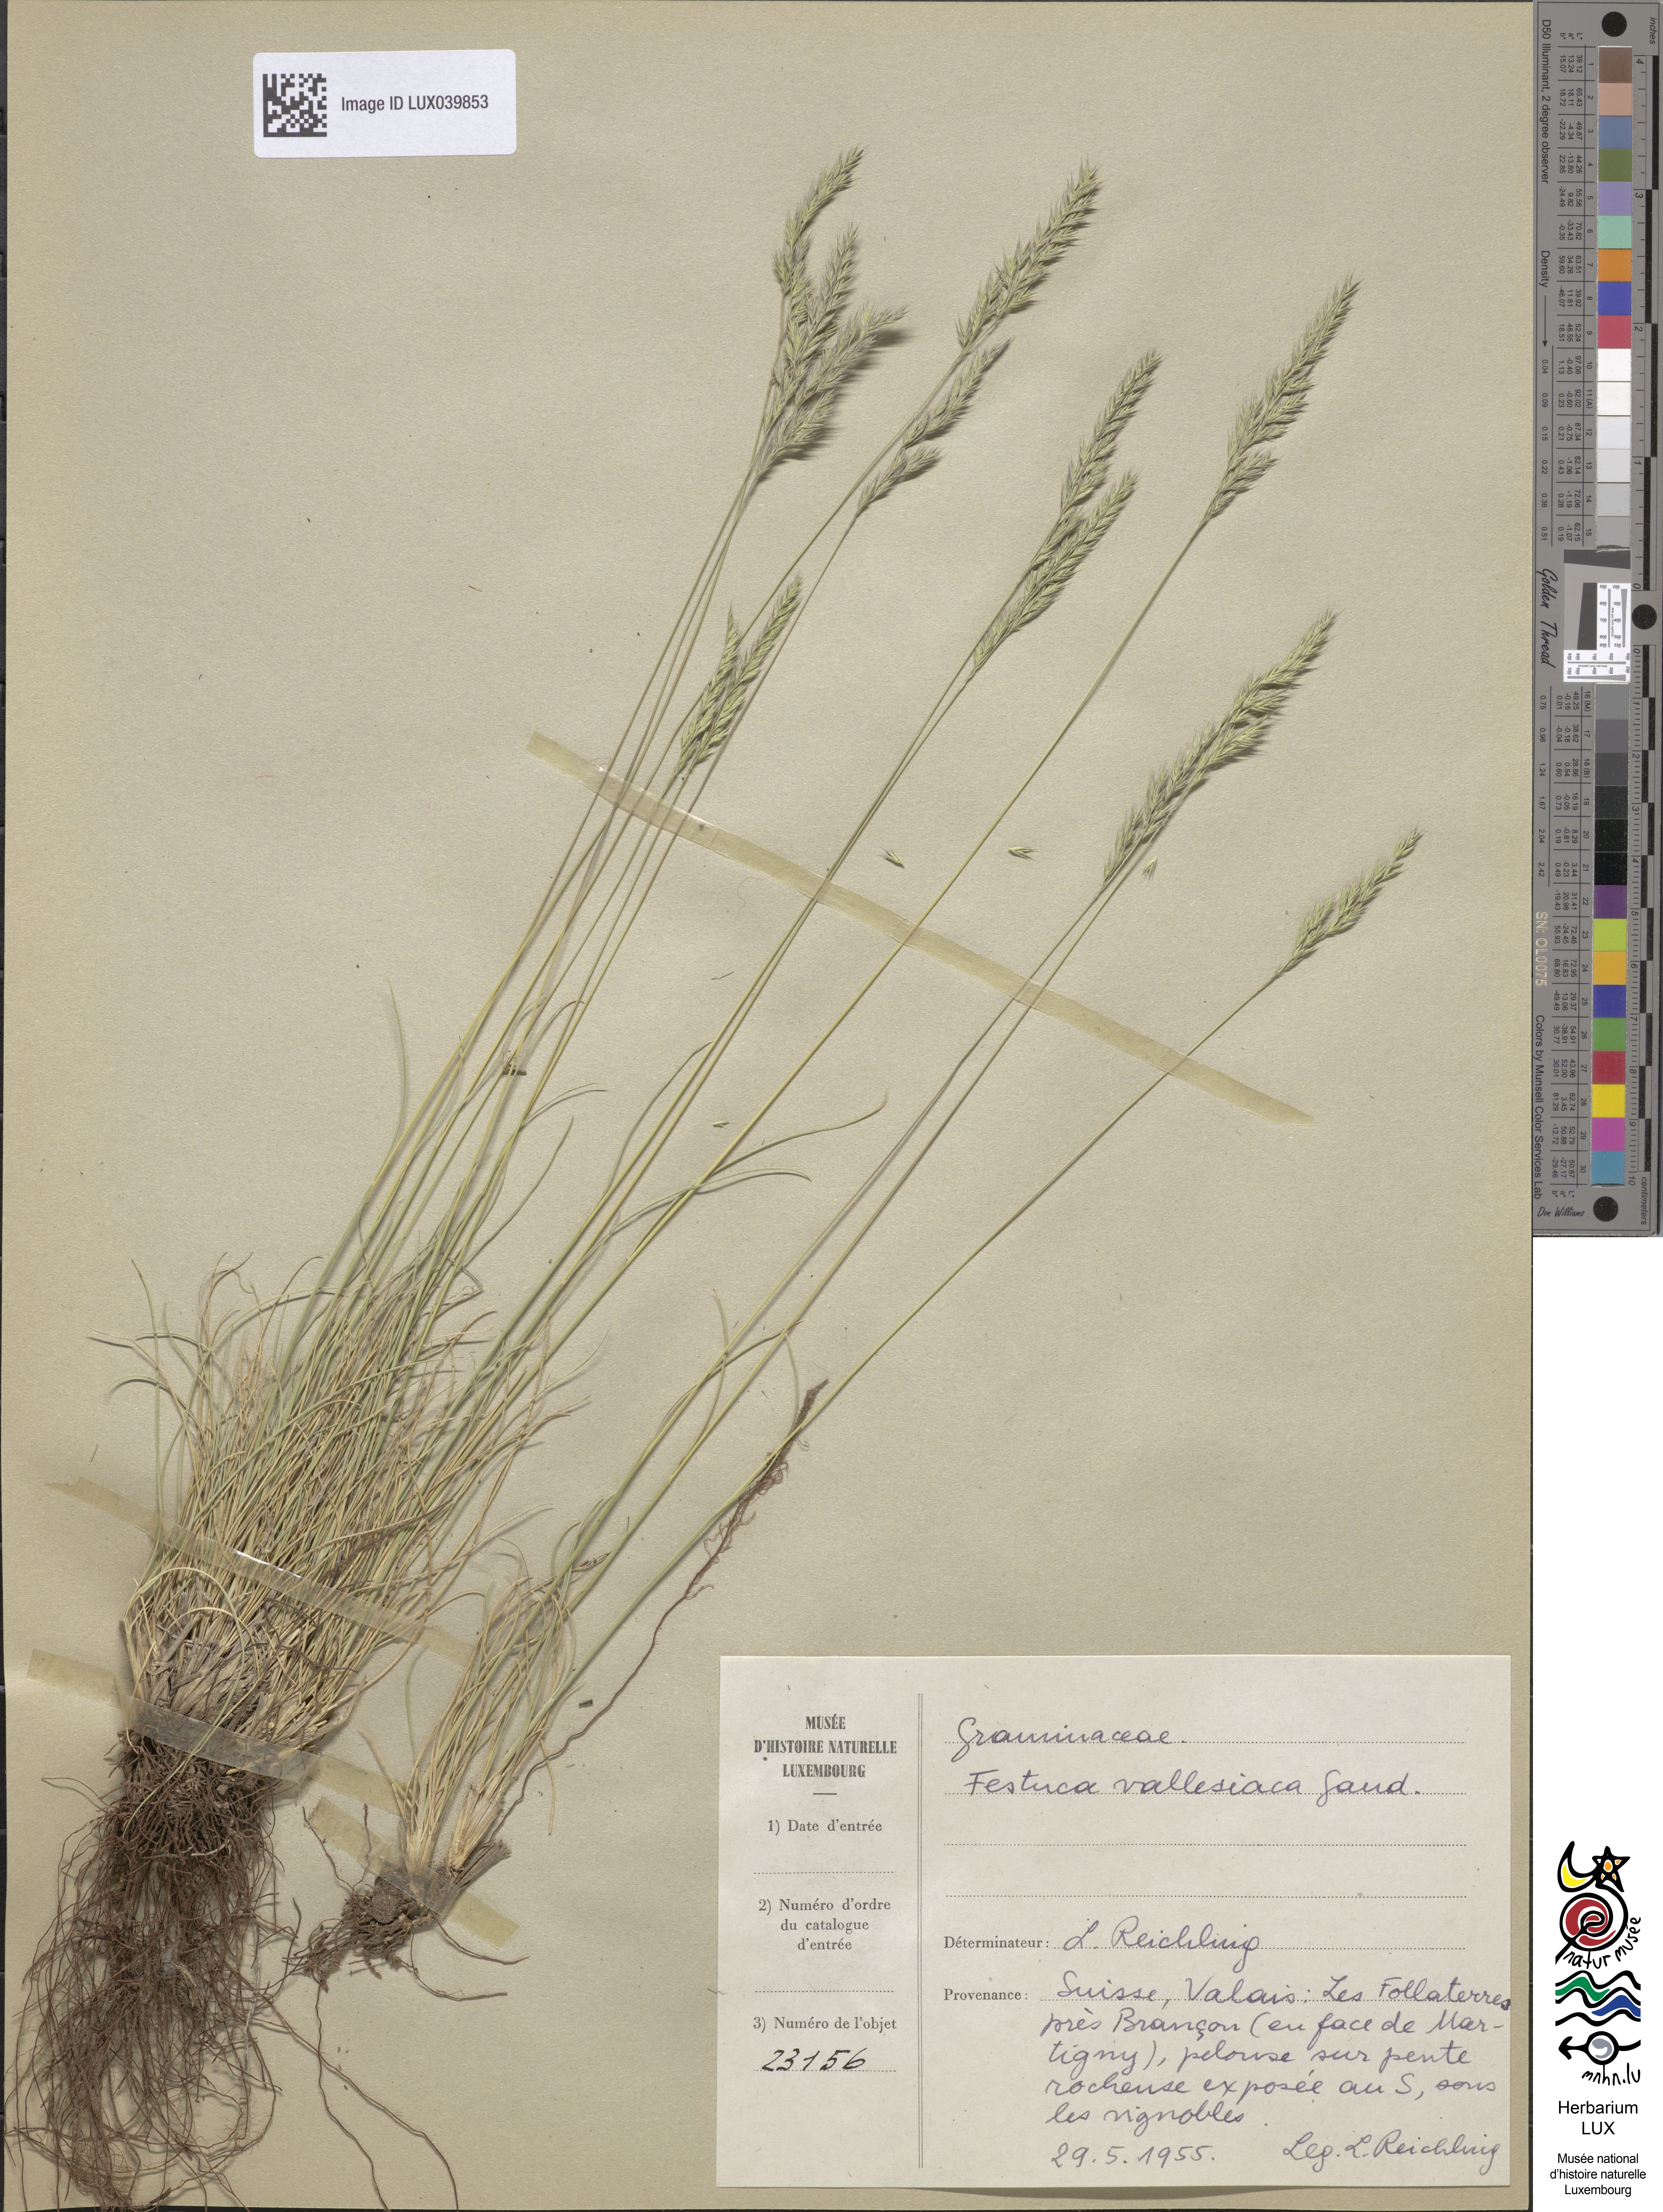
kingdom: Plantae
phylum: Tracheophyta
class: Liliopsida
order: Poales
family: Poaceae
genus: Festuca
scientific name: Festuca valesiaca
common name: Volga fescue
